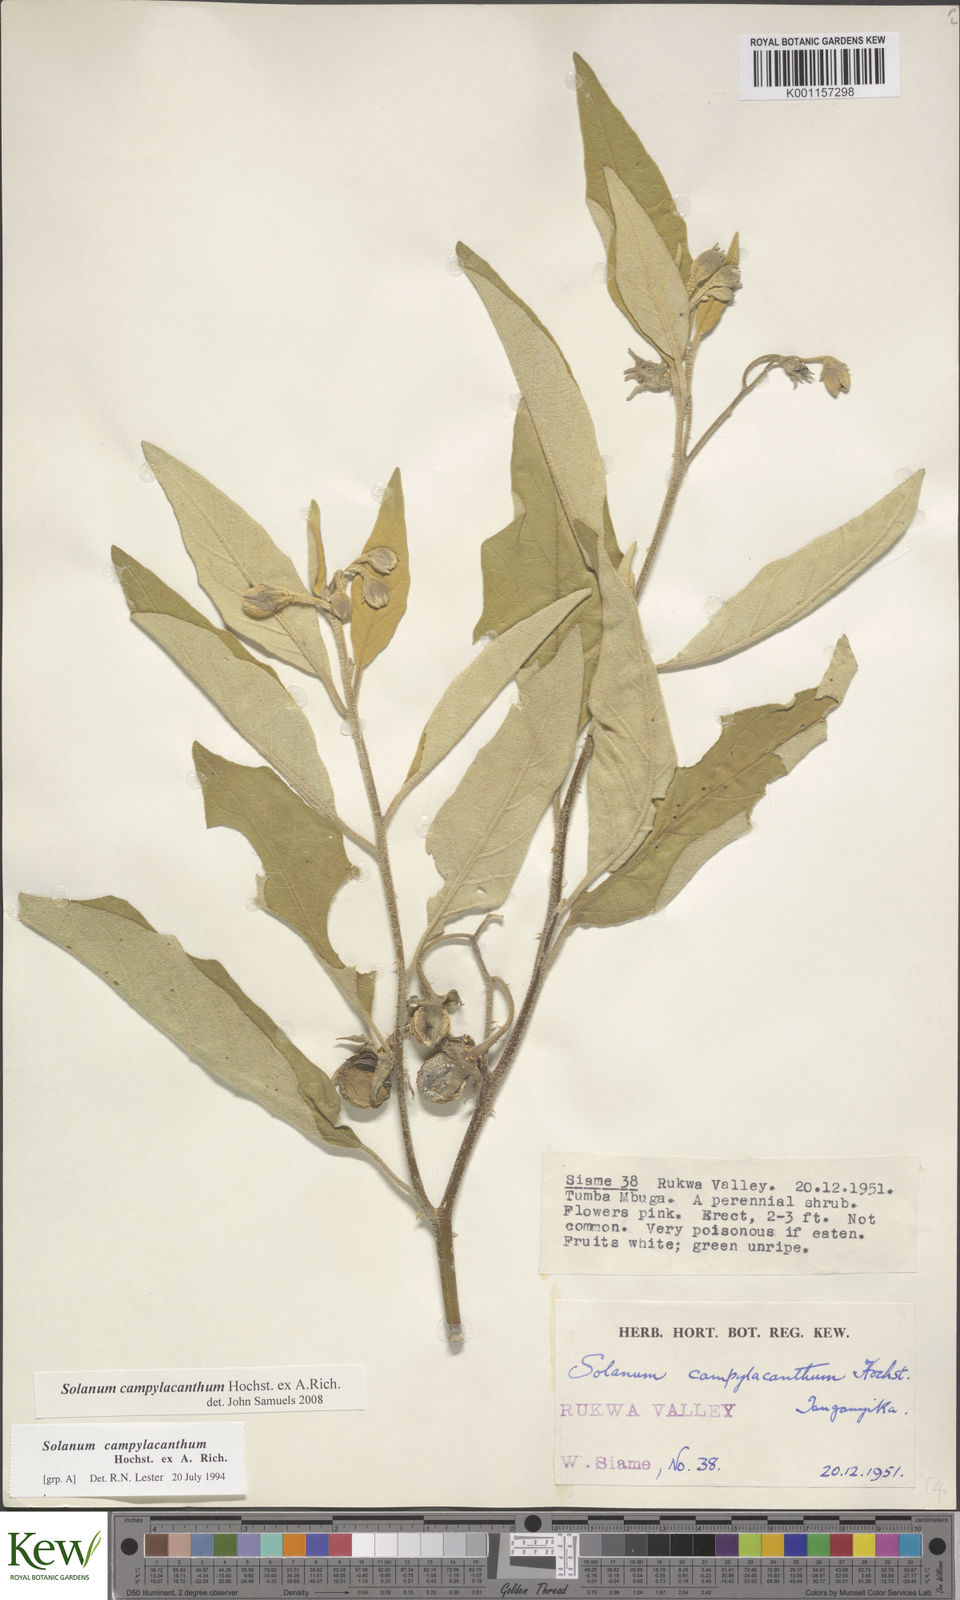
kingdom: Plantae
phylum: Tracheophyta
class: Magnoliopsida
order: Solanales
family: Solanaceae
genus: Solanum
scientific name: Solanum campylacanthum
